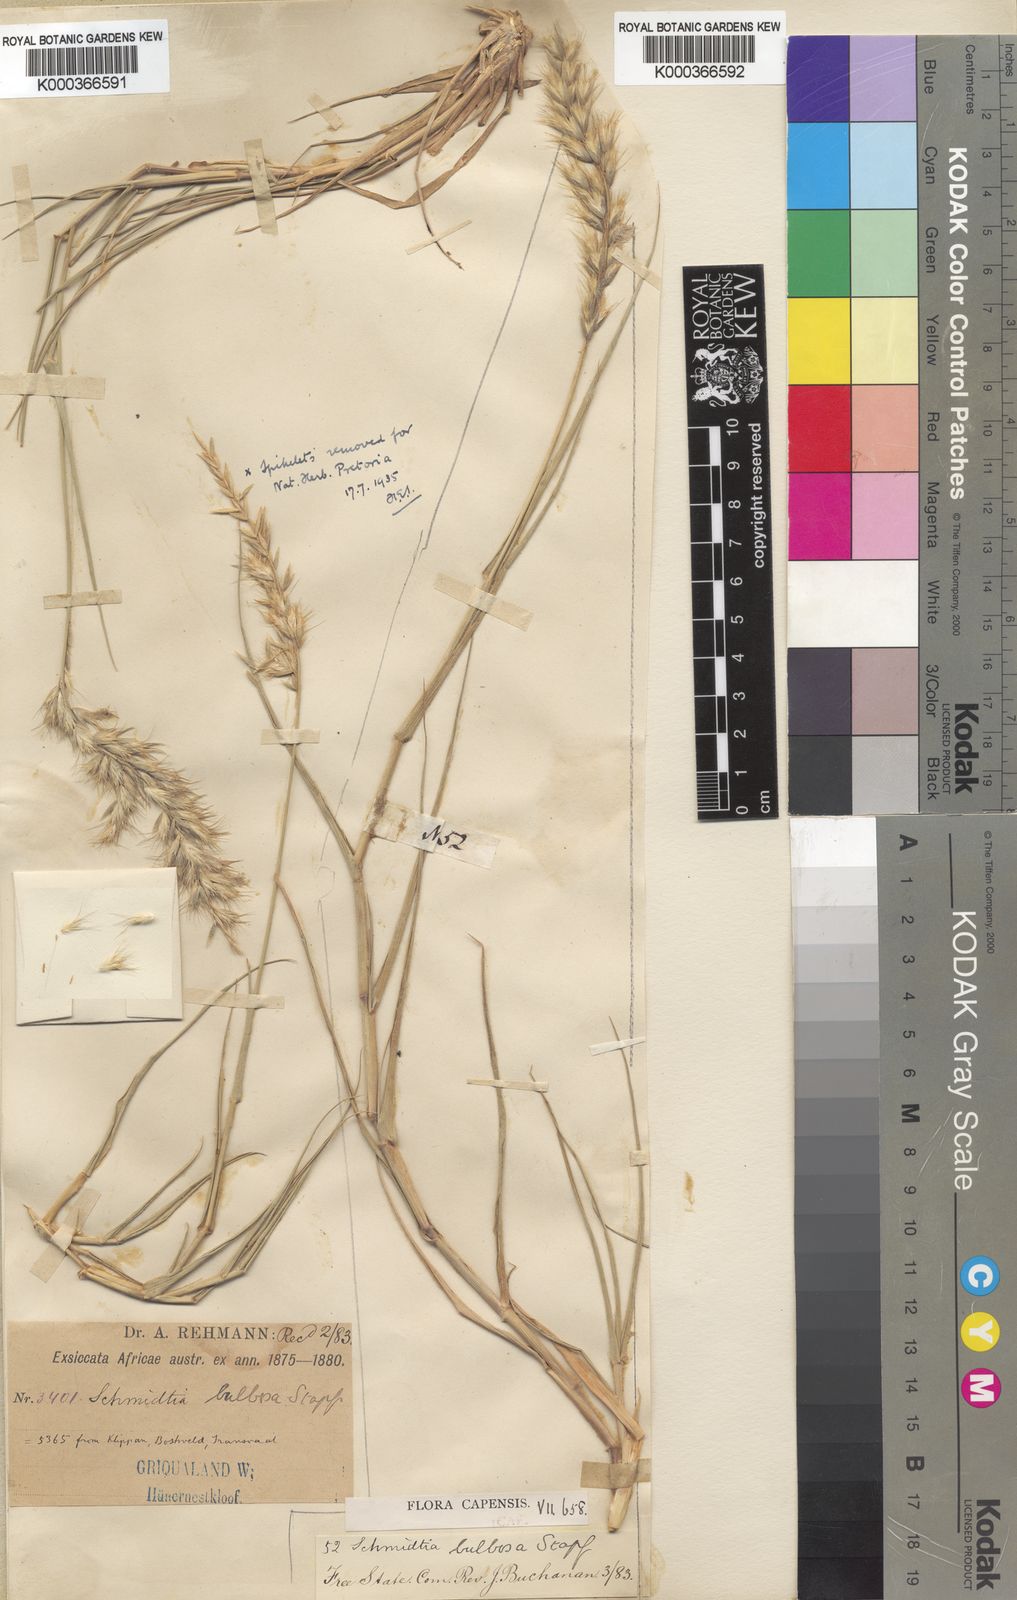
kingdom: Plantae
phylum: Tracheophyta
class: Liliopsida
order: Poales
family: Poaceae
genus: Schmidtia
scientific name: Schmidtia pappophoroides
